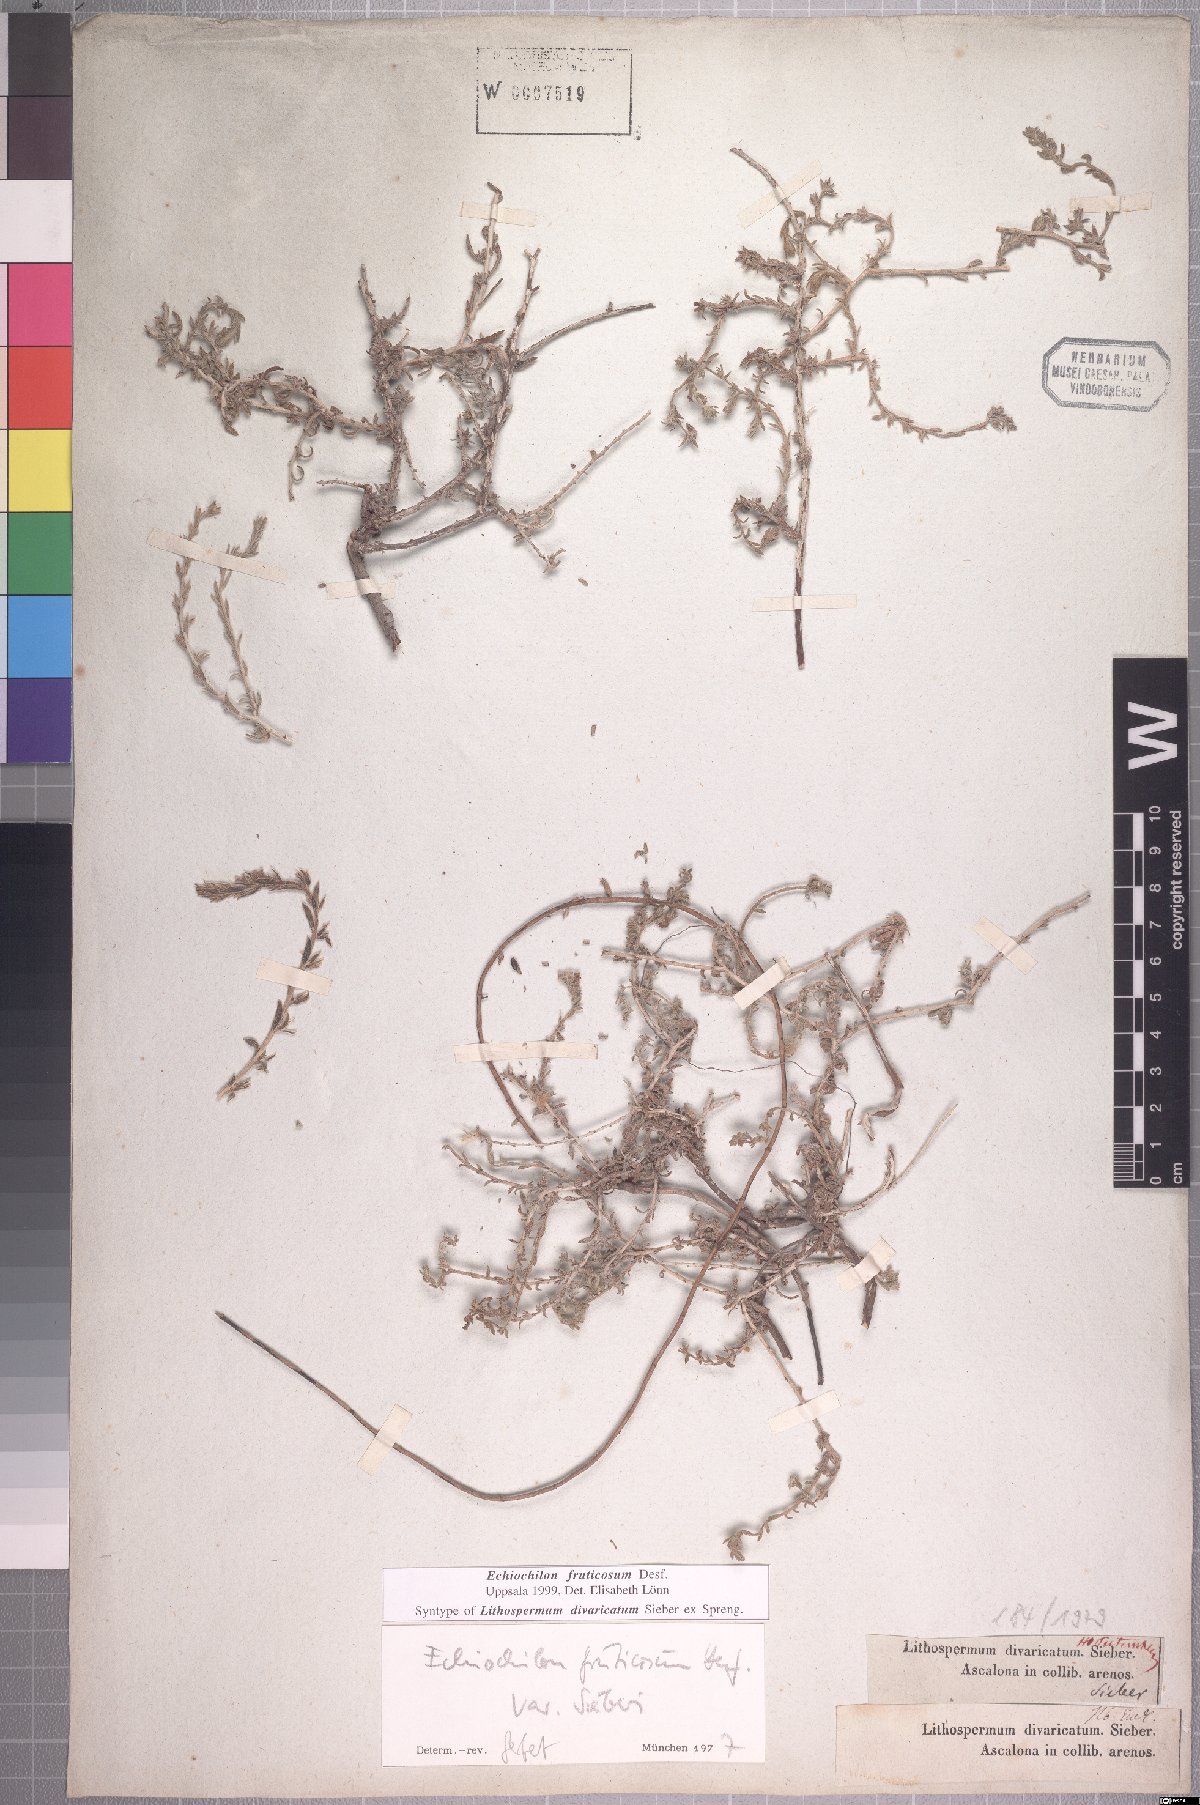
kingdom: Plantae
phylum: Tracheophyta
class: Magnoliopsida
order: Boraginales
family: Boraginaceae
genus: Echiochilon
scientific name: Echiochilon fruticosum
